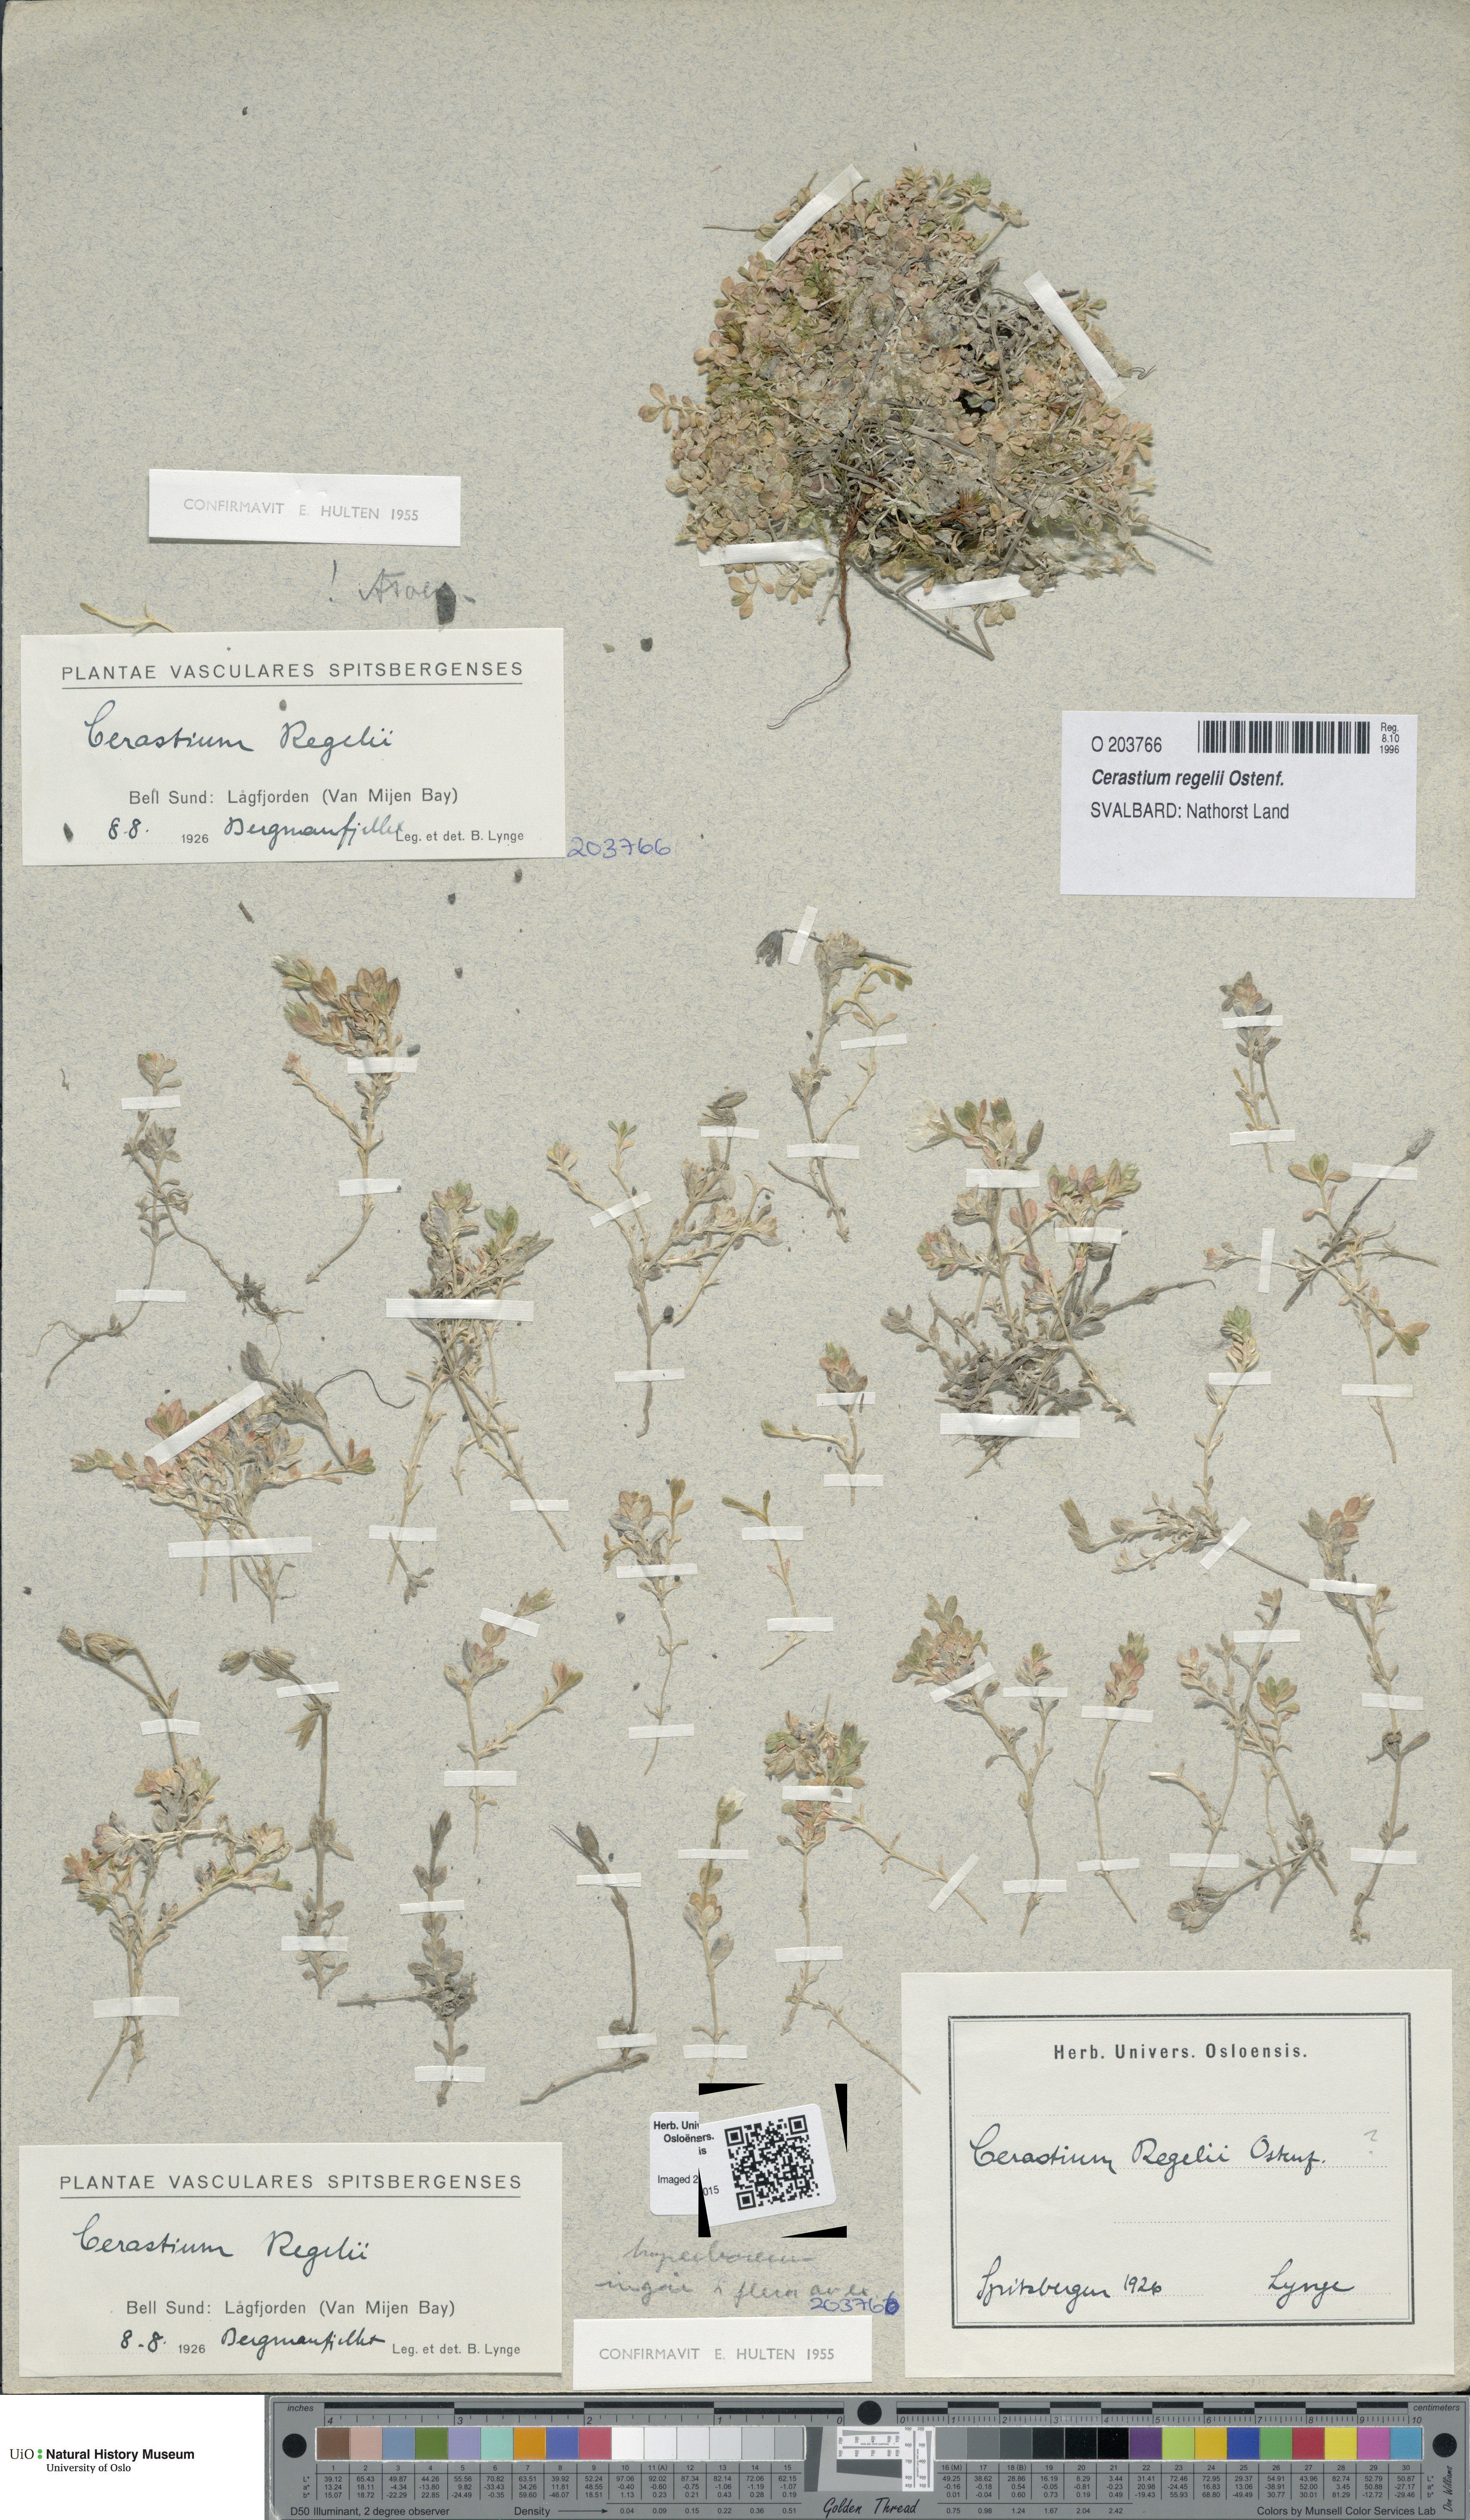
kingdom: Plantae
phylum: Tracheophyta
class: Magnoliopsida
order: Caryophyllales
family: Caryophyllaceae
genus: Cerastium
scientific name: Cerastium regelii
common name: Regel's chickweed
